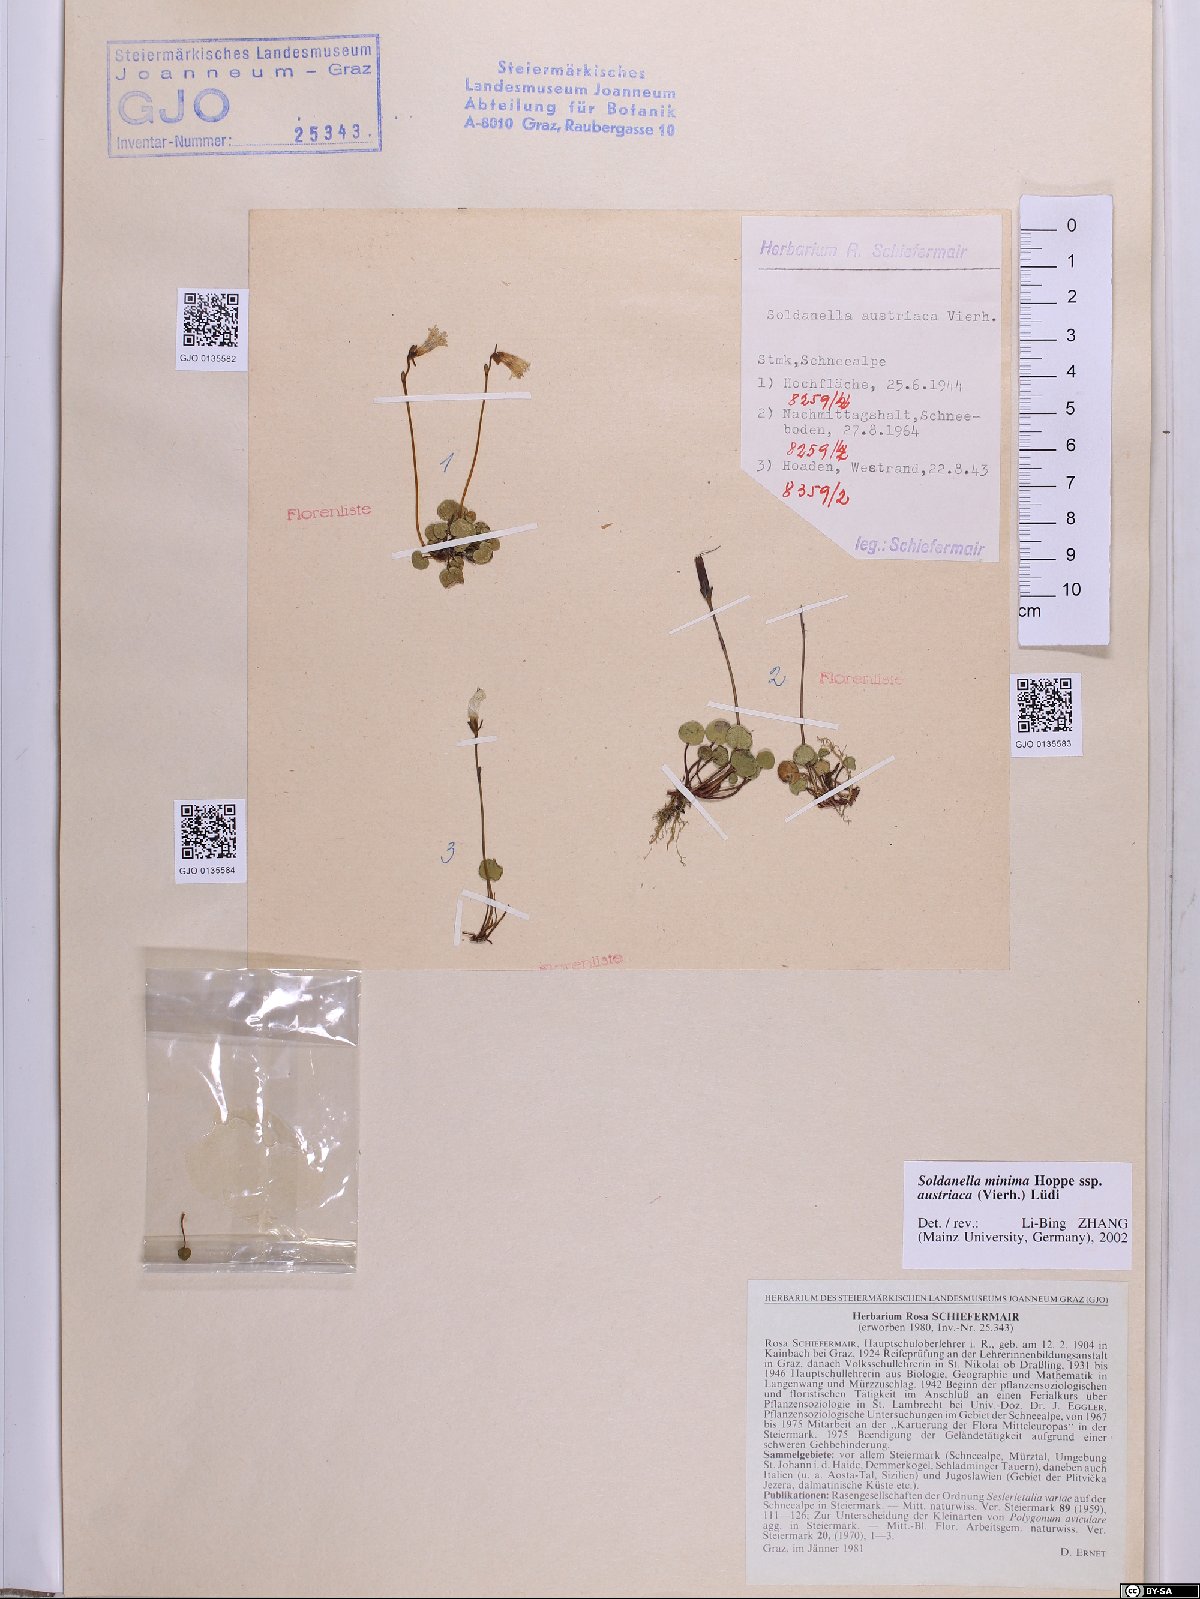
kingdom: Plantae
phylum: Tracheophyta
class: Magnoliopsida
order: Ericales
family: Primulaceae
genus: Soldanella
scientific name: Soldanella austriaca
